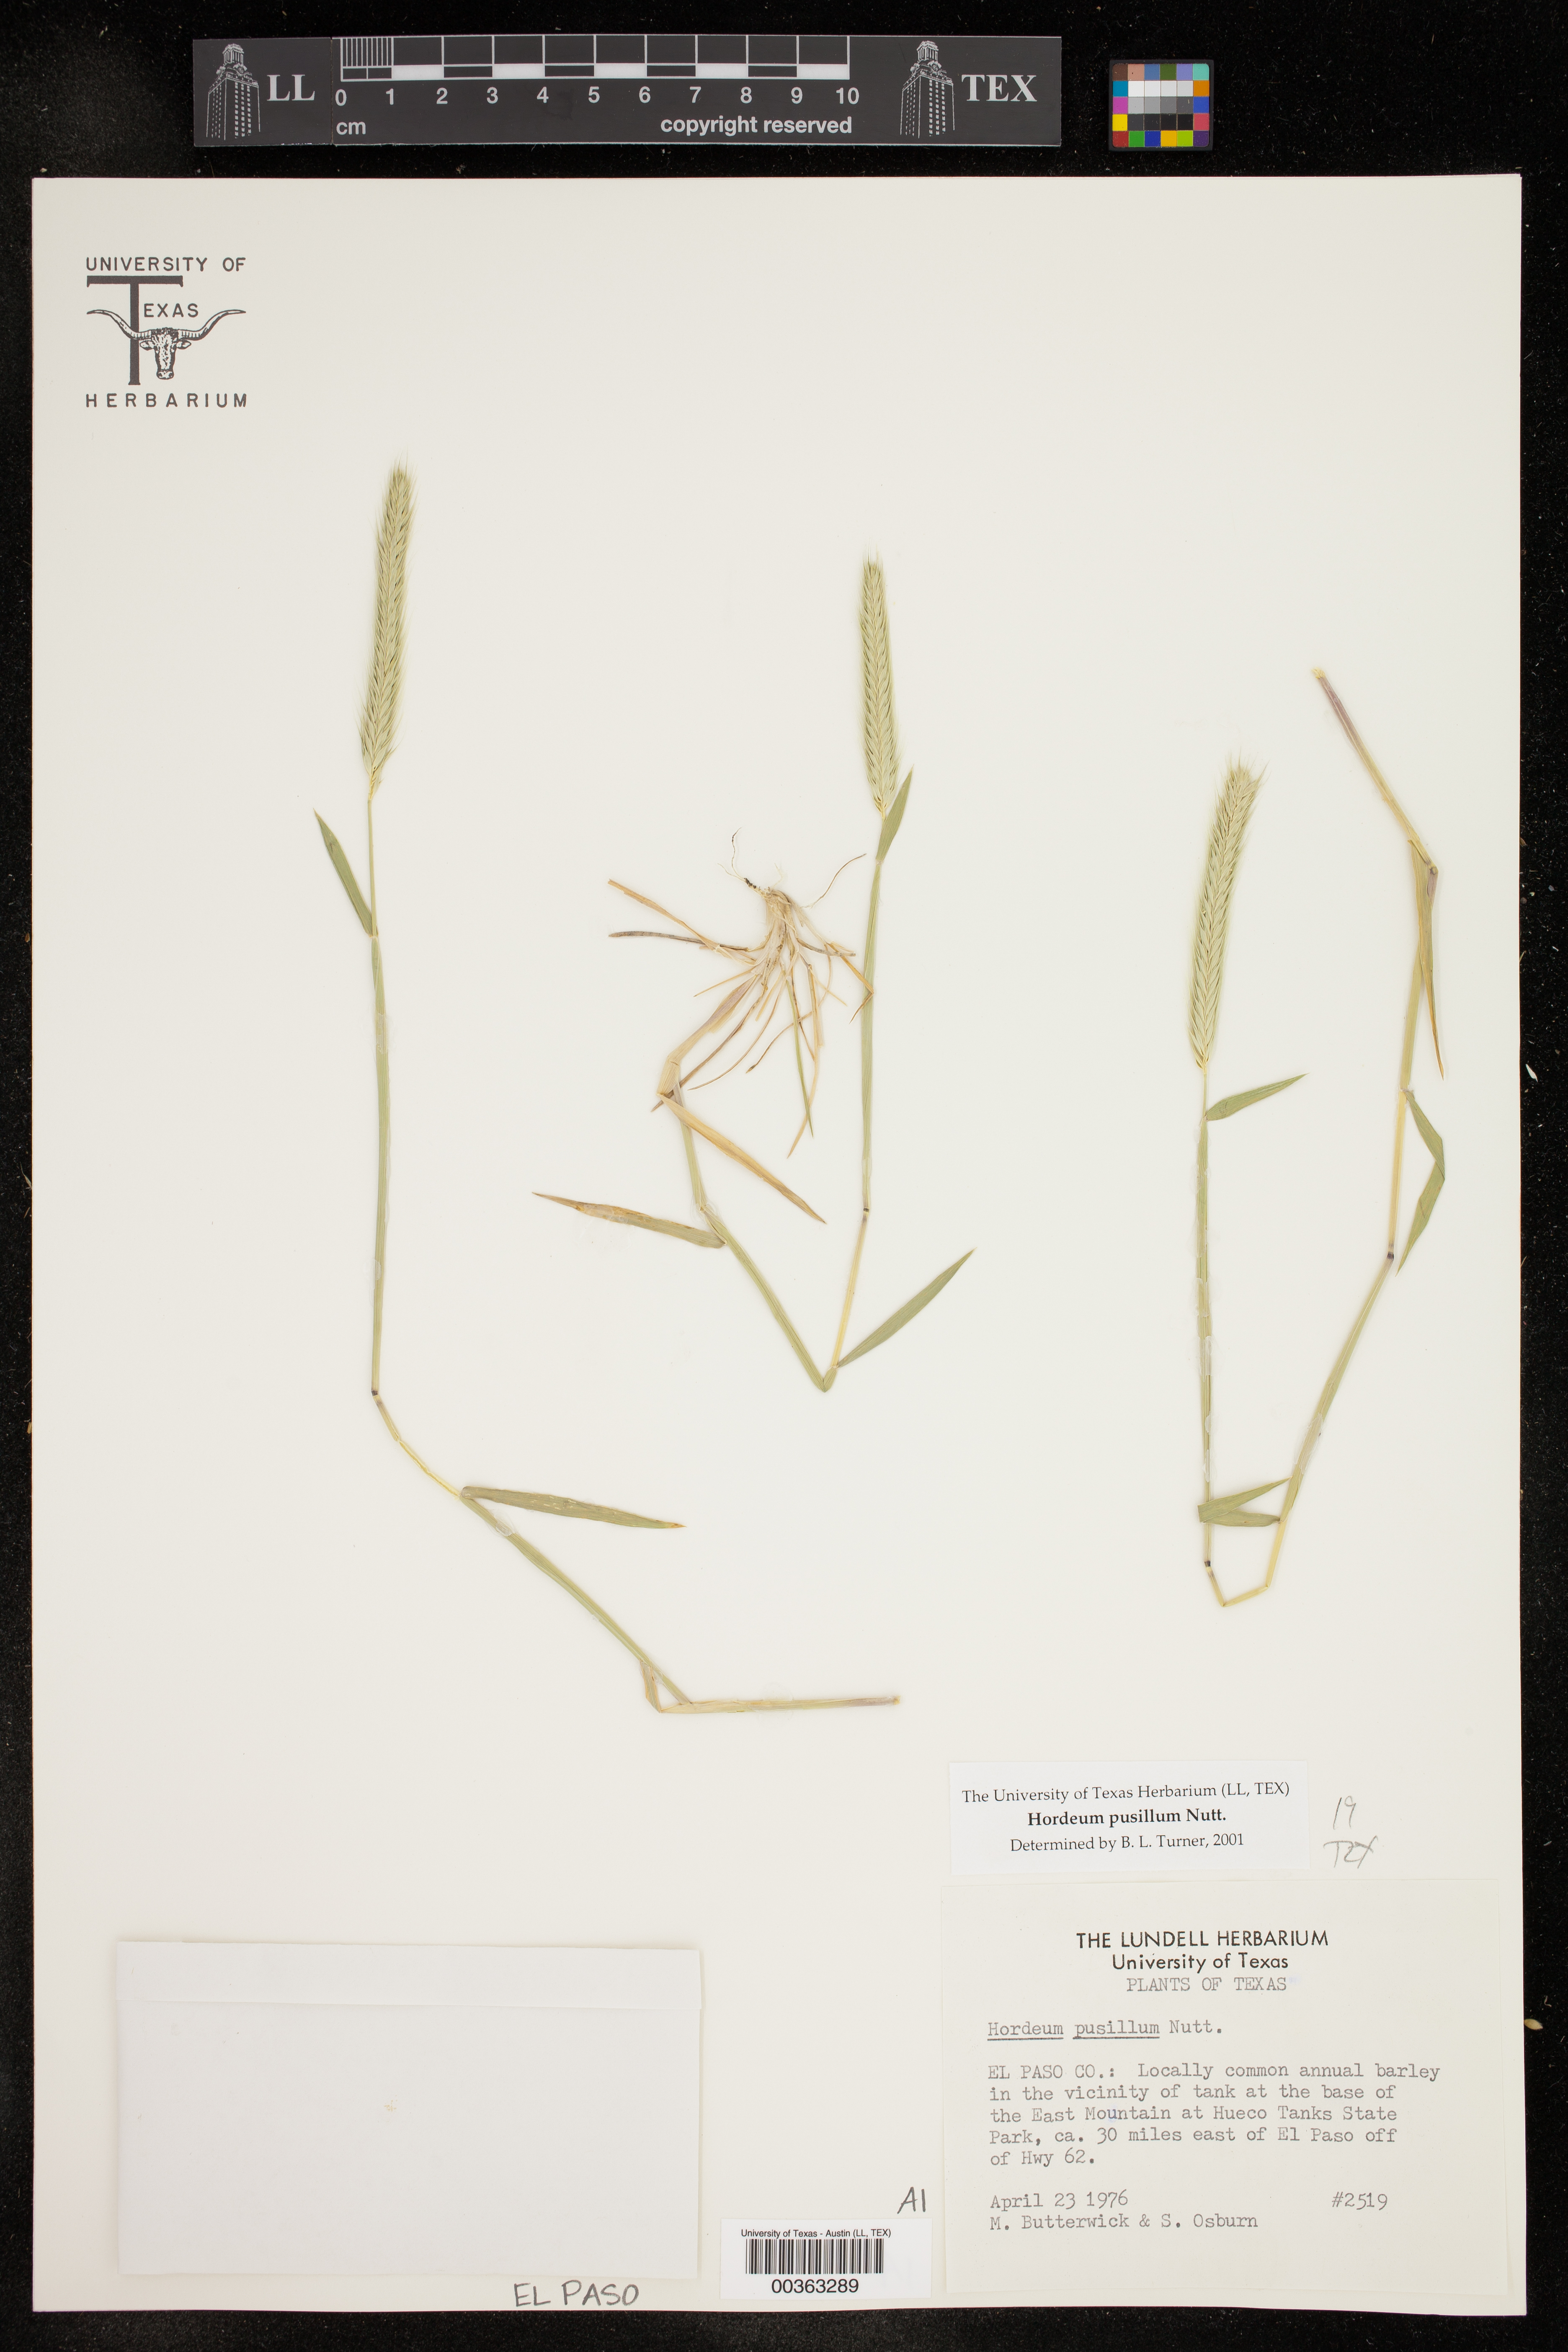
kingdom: Plantae
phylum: Tracheophyta
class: Liliopsida
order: Poales
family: Poaceae
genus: Hordeum
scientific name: Hordeum pusillum
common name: Little barley
